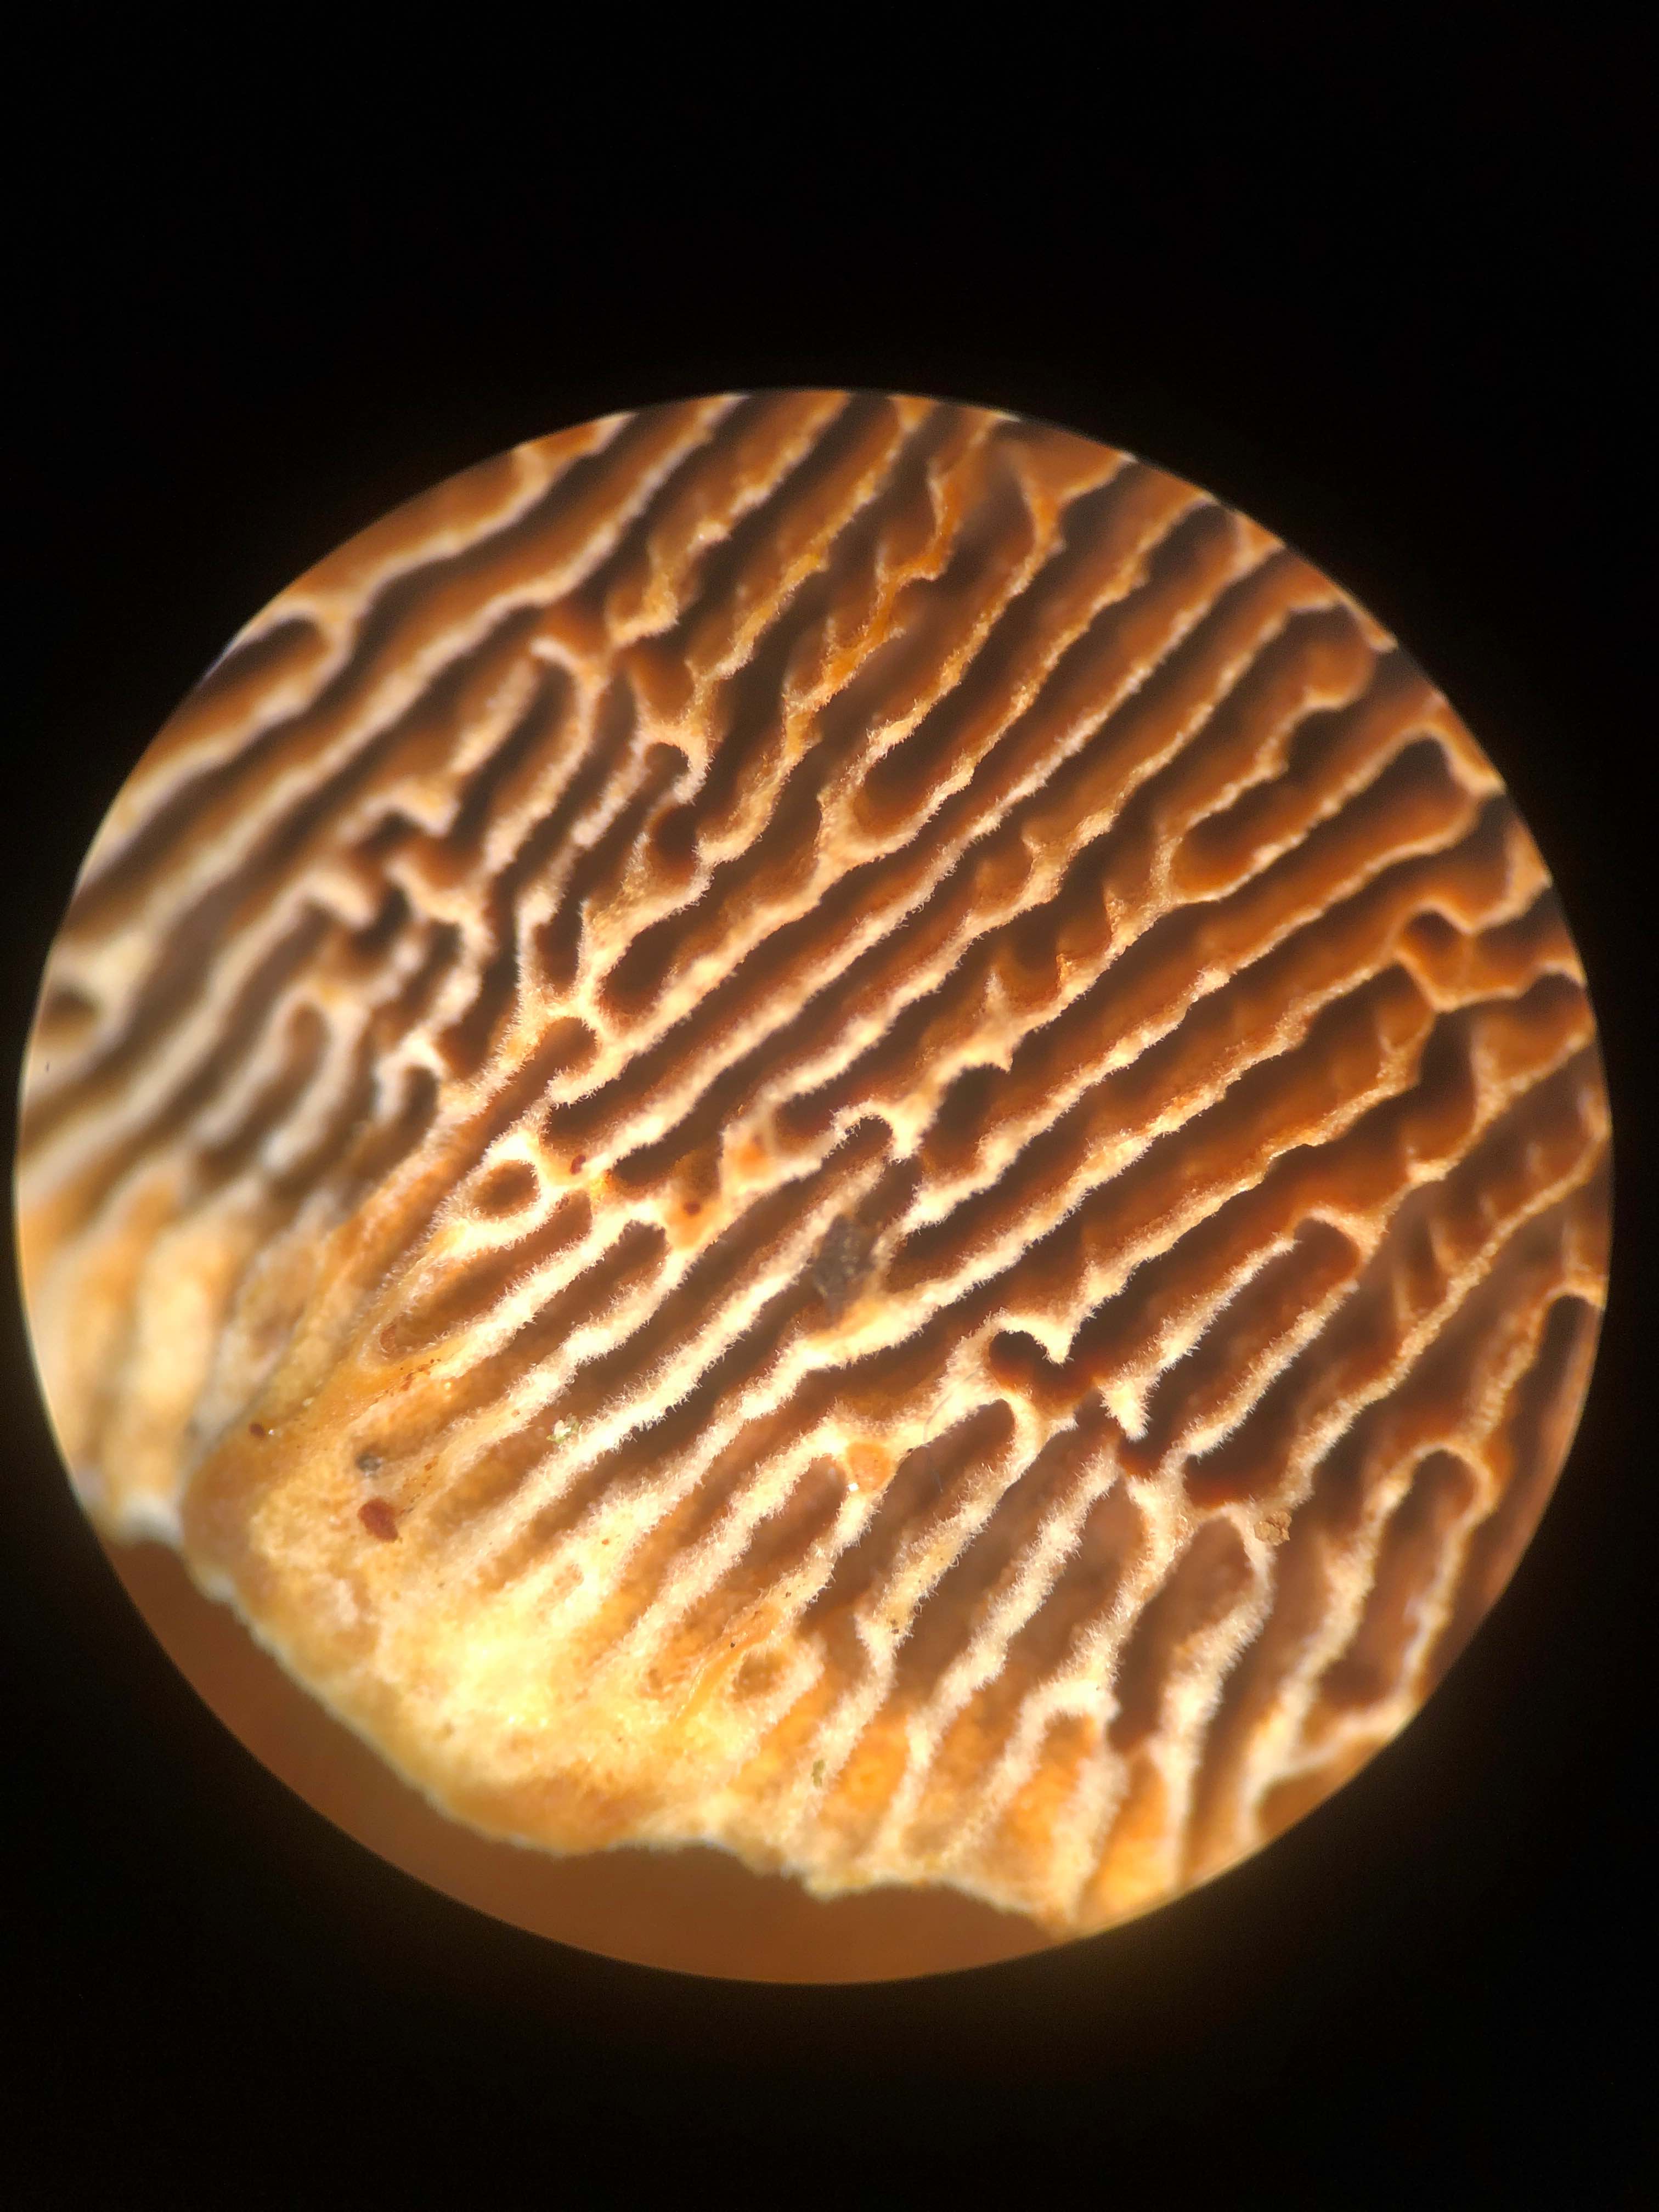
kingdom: Fungi
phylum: Basidiomycota
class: Agaricomycetes
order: Gloeophyllales
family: Gloeophyllaceae
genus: Gloeophyllum
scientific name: Gloeophyllum sepiarium
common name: fyrre-korkhat
